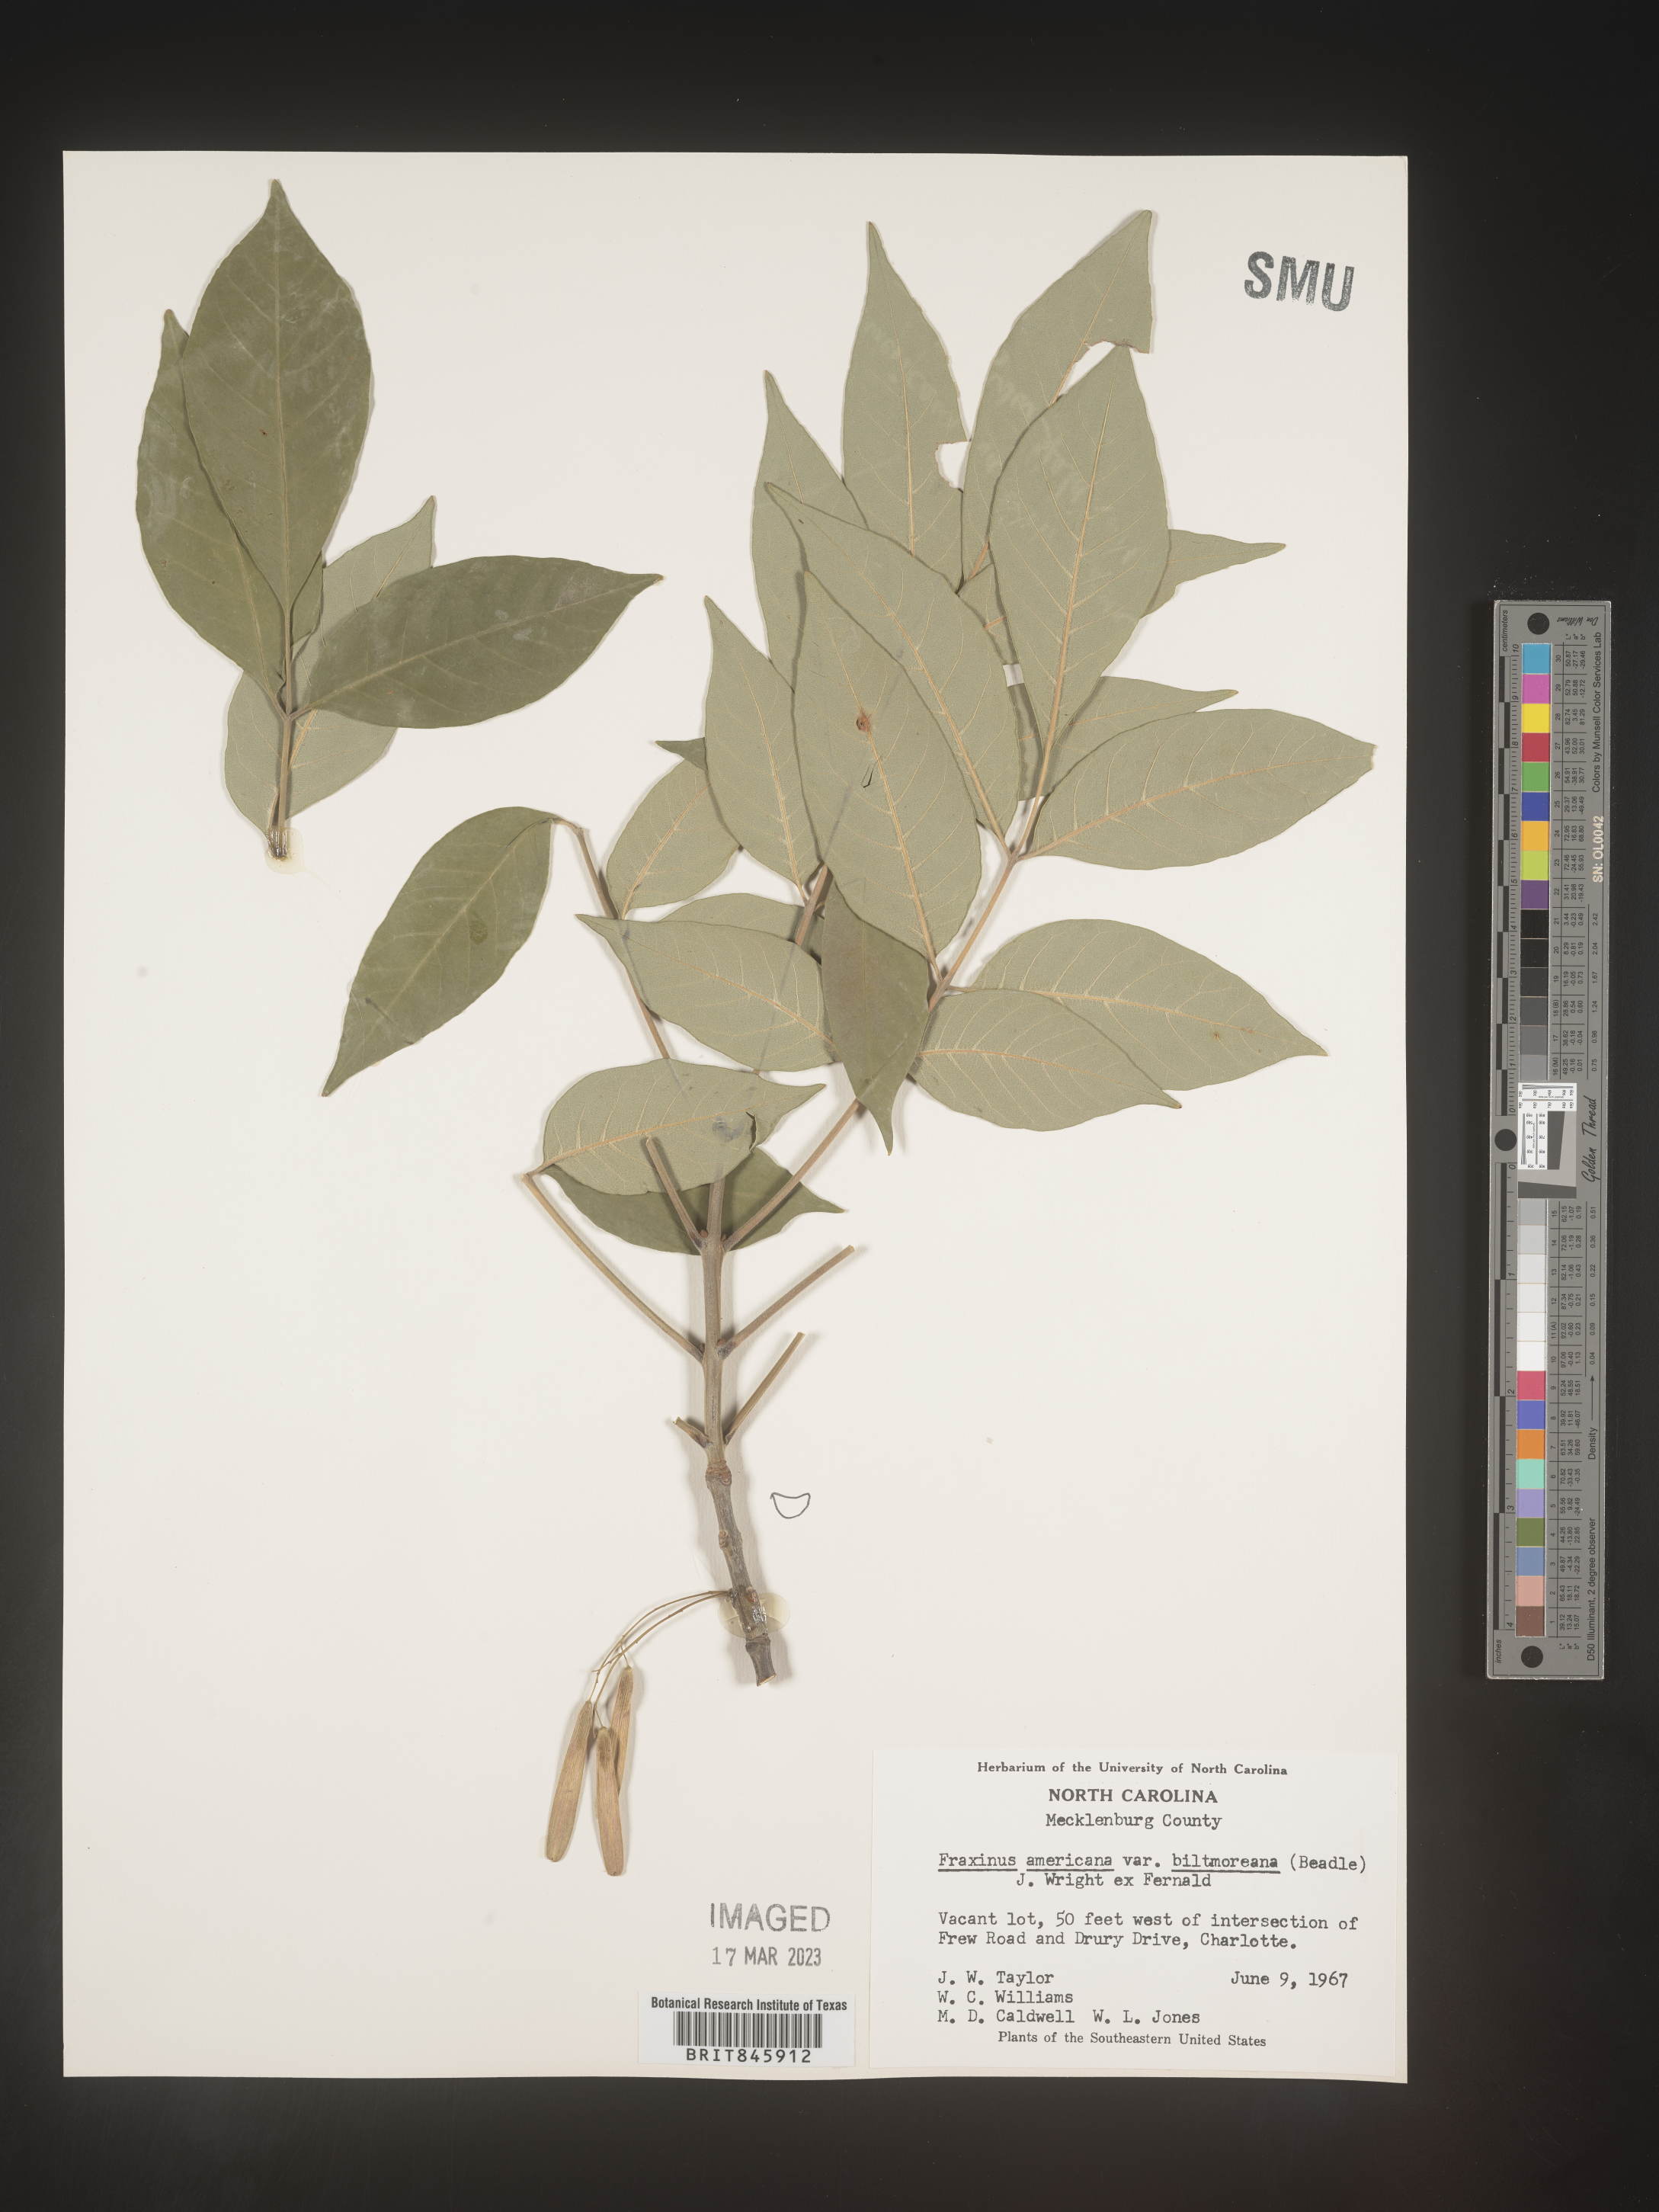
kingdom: Plantae
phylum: Tracheophyta
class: Magnoliopsida
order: Lamiales
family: Oleaceae
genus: Fraxinus
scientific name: Fraxinus americana
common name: White ash
